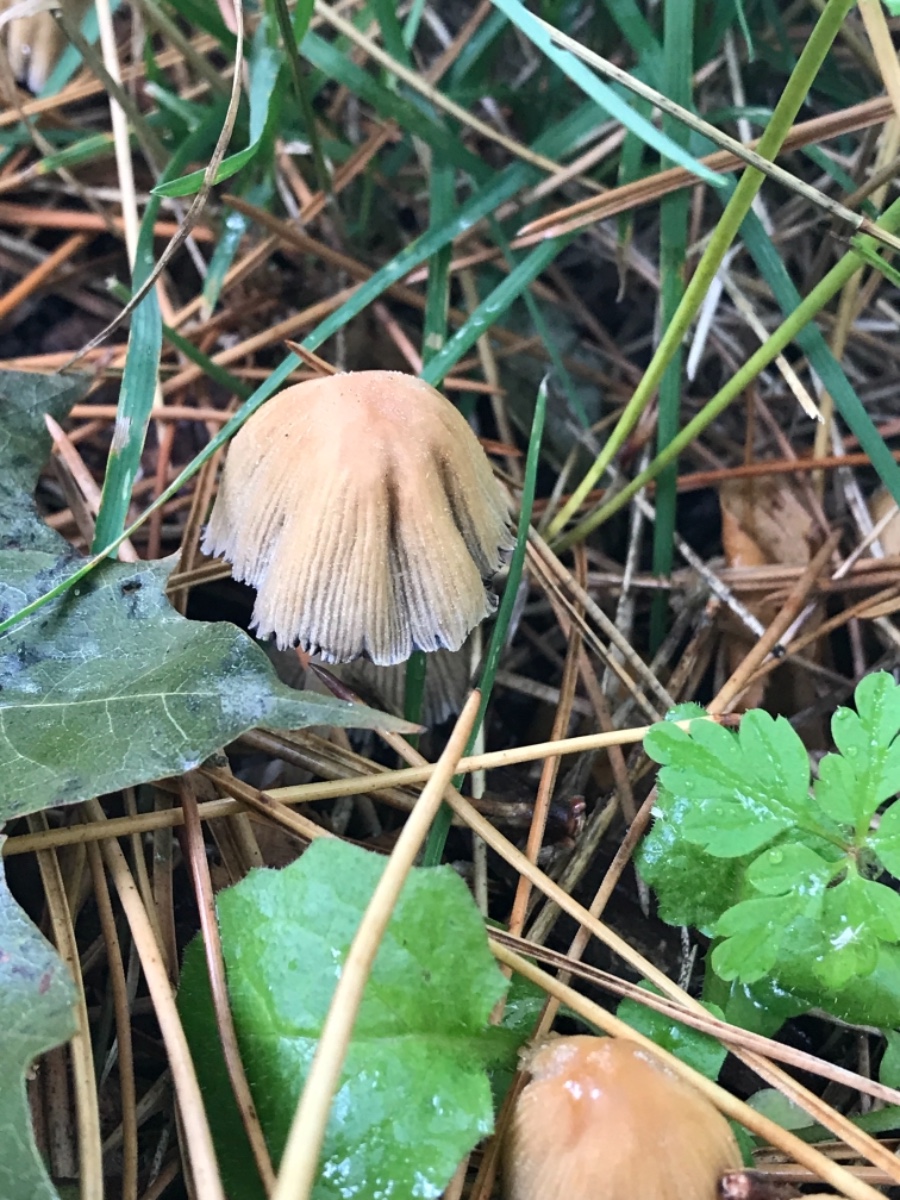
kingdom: Fungi
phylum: Basidiomycota
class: Agaricomycetes
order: Agaricales
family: Psathyrellaceae
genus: Coprinellus
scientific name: Coprinellus micaceus
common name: glimmer-blækhat
